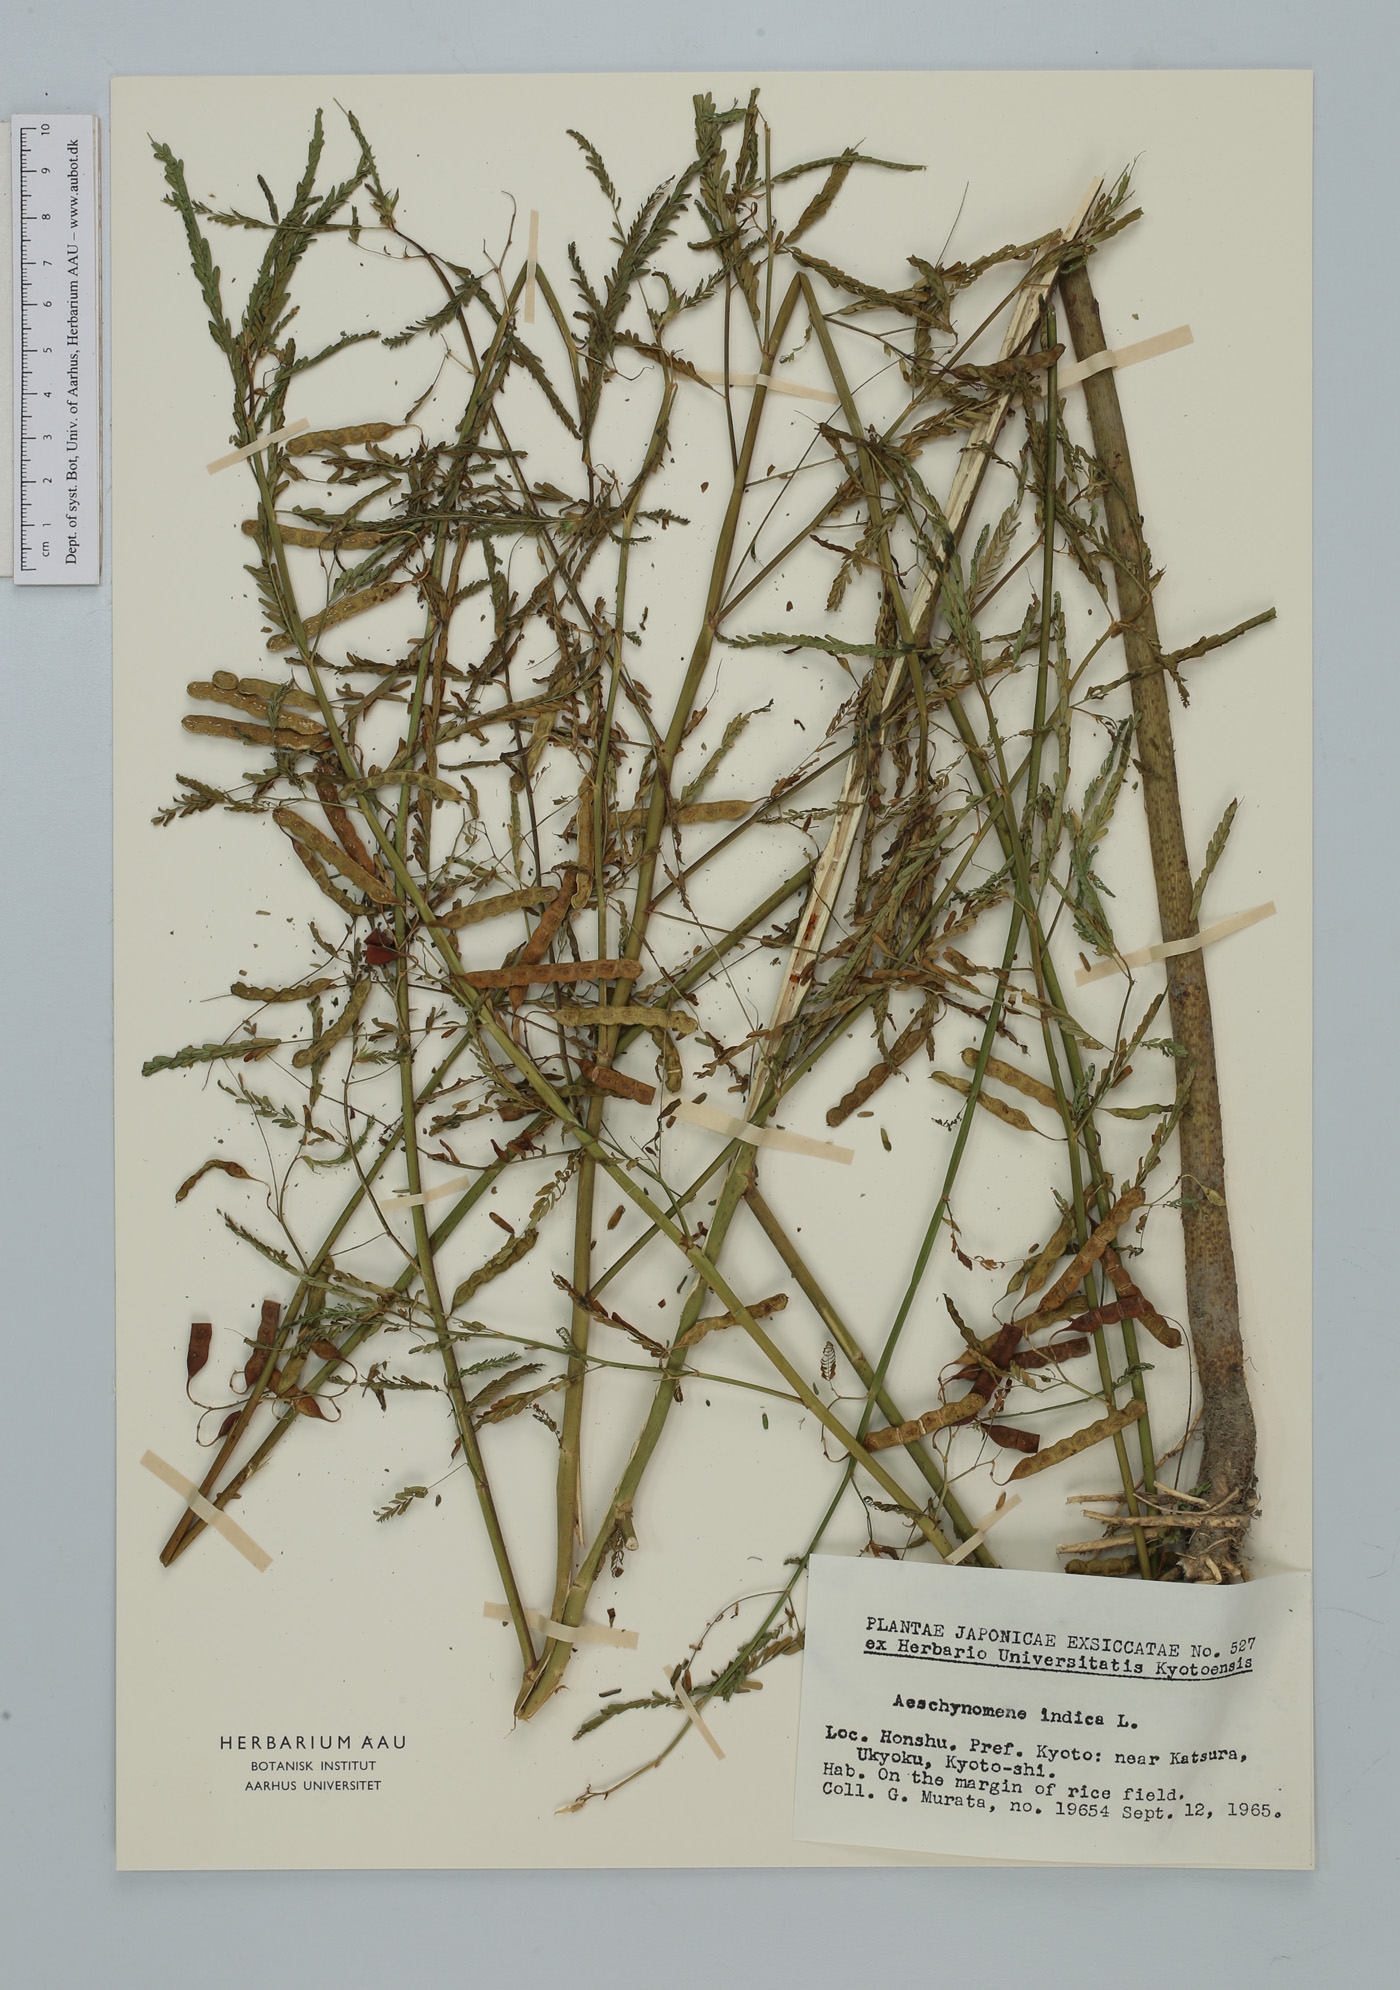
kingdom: Plantae
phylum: Tracheophyta
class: Magnoliopsida
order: Fabales
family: Fabaceae
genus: Aeschynomene
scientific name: Aeschynomene indica
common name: Indian jointvetch
